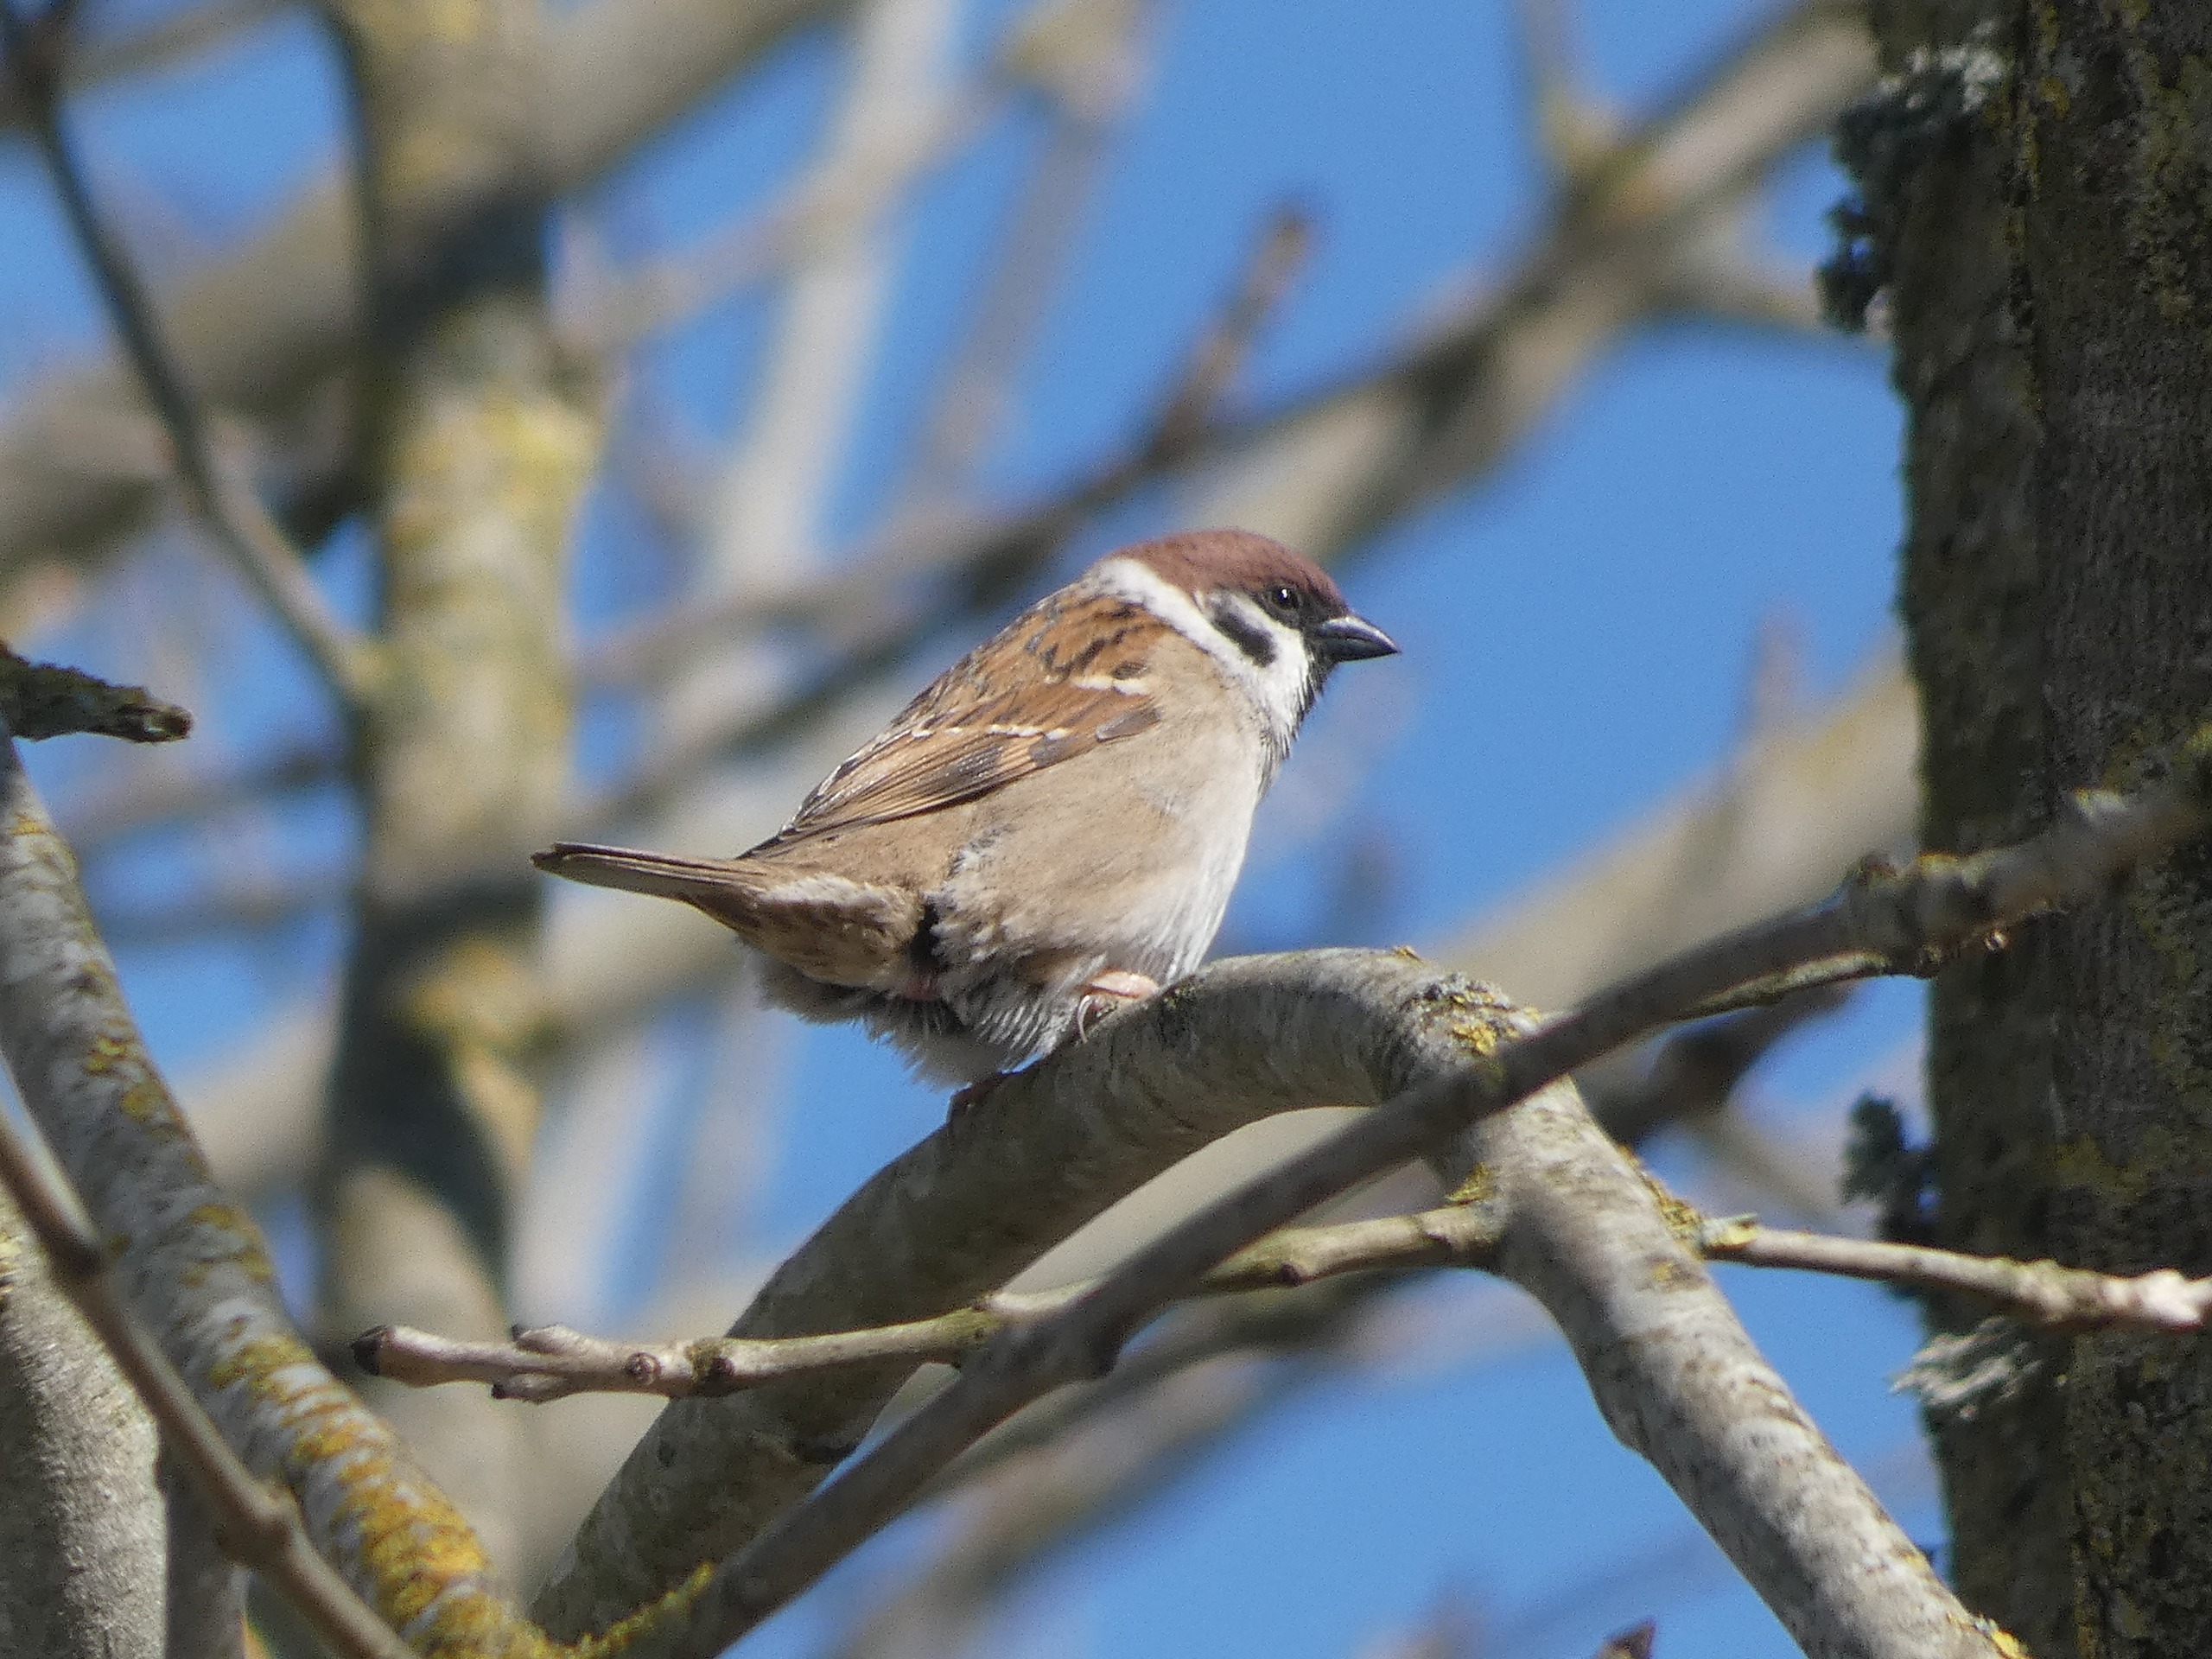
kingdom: Animalia
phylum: Chordata
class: Aves
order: Passeriformes
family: Passeridae
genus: Passer
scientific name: Passer montanus
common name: Skovspurv
